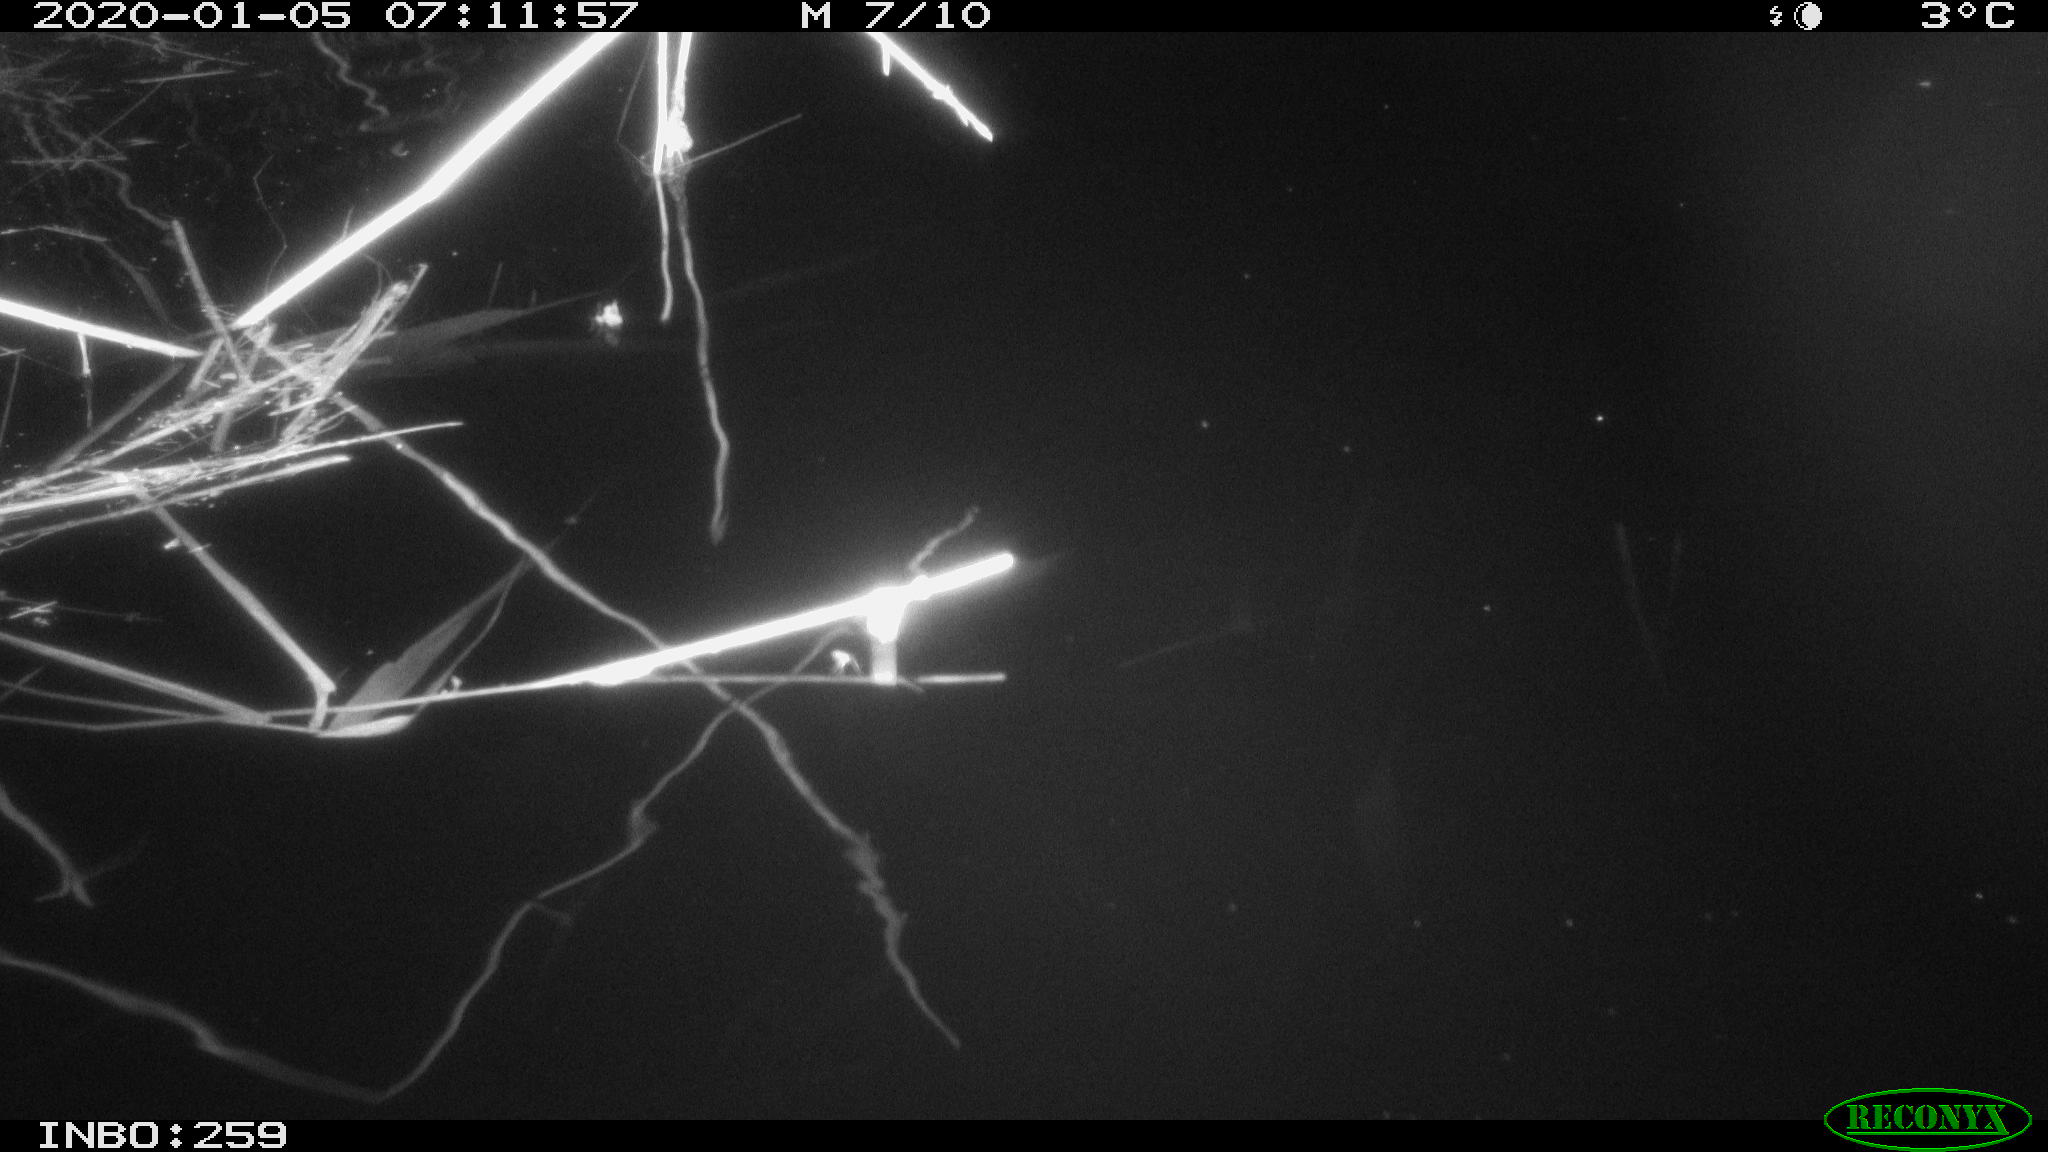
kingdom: Animalia
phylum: Chordata
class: Mammalia
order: Rodentia
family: Cricetidae
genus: Ondatra
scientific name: Ondatra zibethicus
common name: Muskrat
